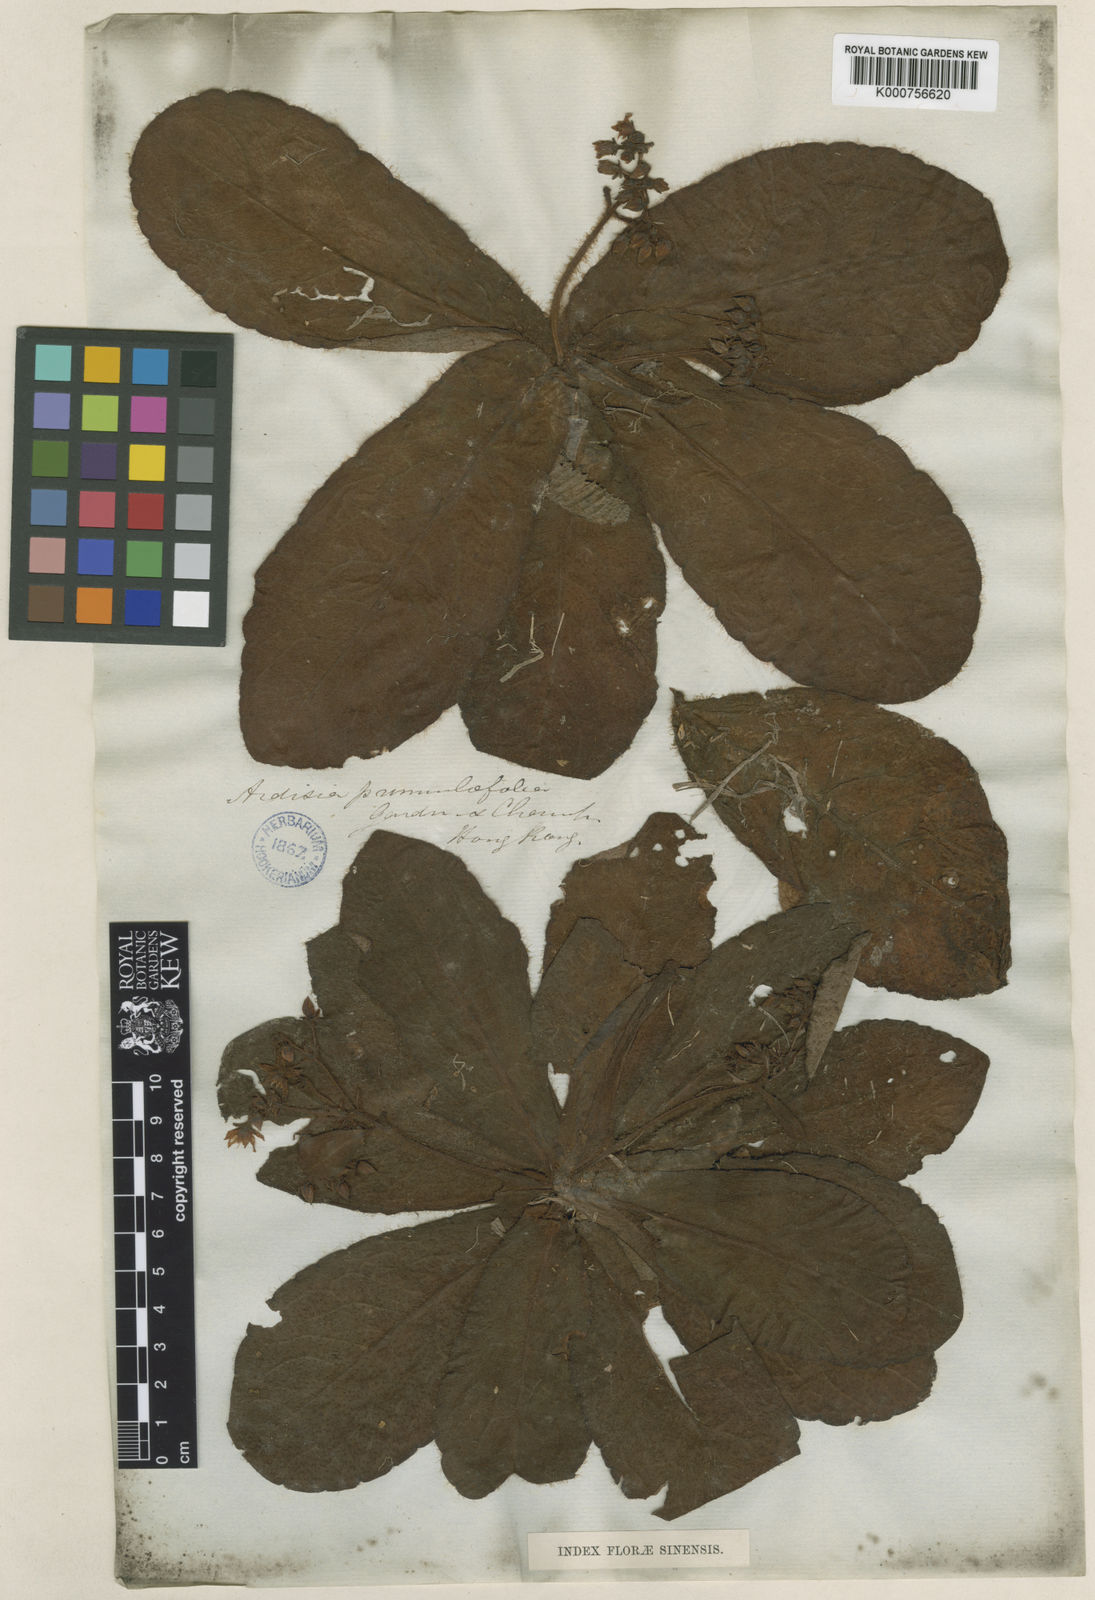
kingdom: Plantae
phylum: Tracheophyta
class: Magnoliopsida
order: Ericales
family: Primulaceae
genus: Ardisia
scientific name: Ardisia primulifolia
